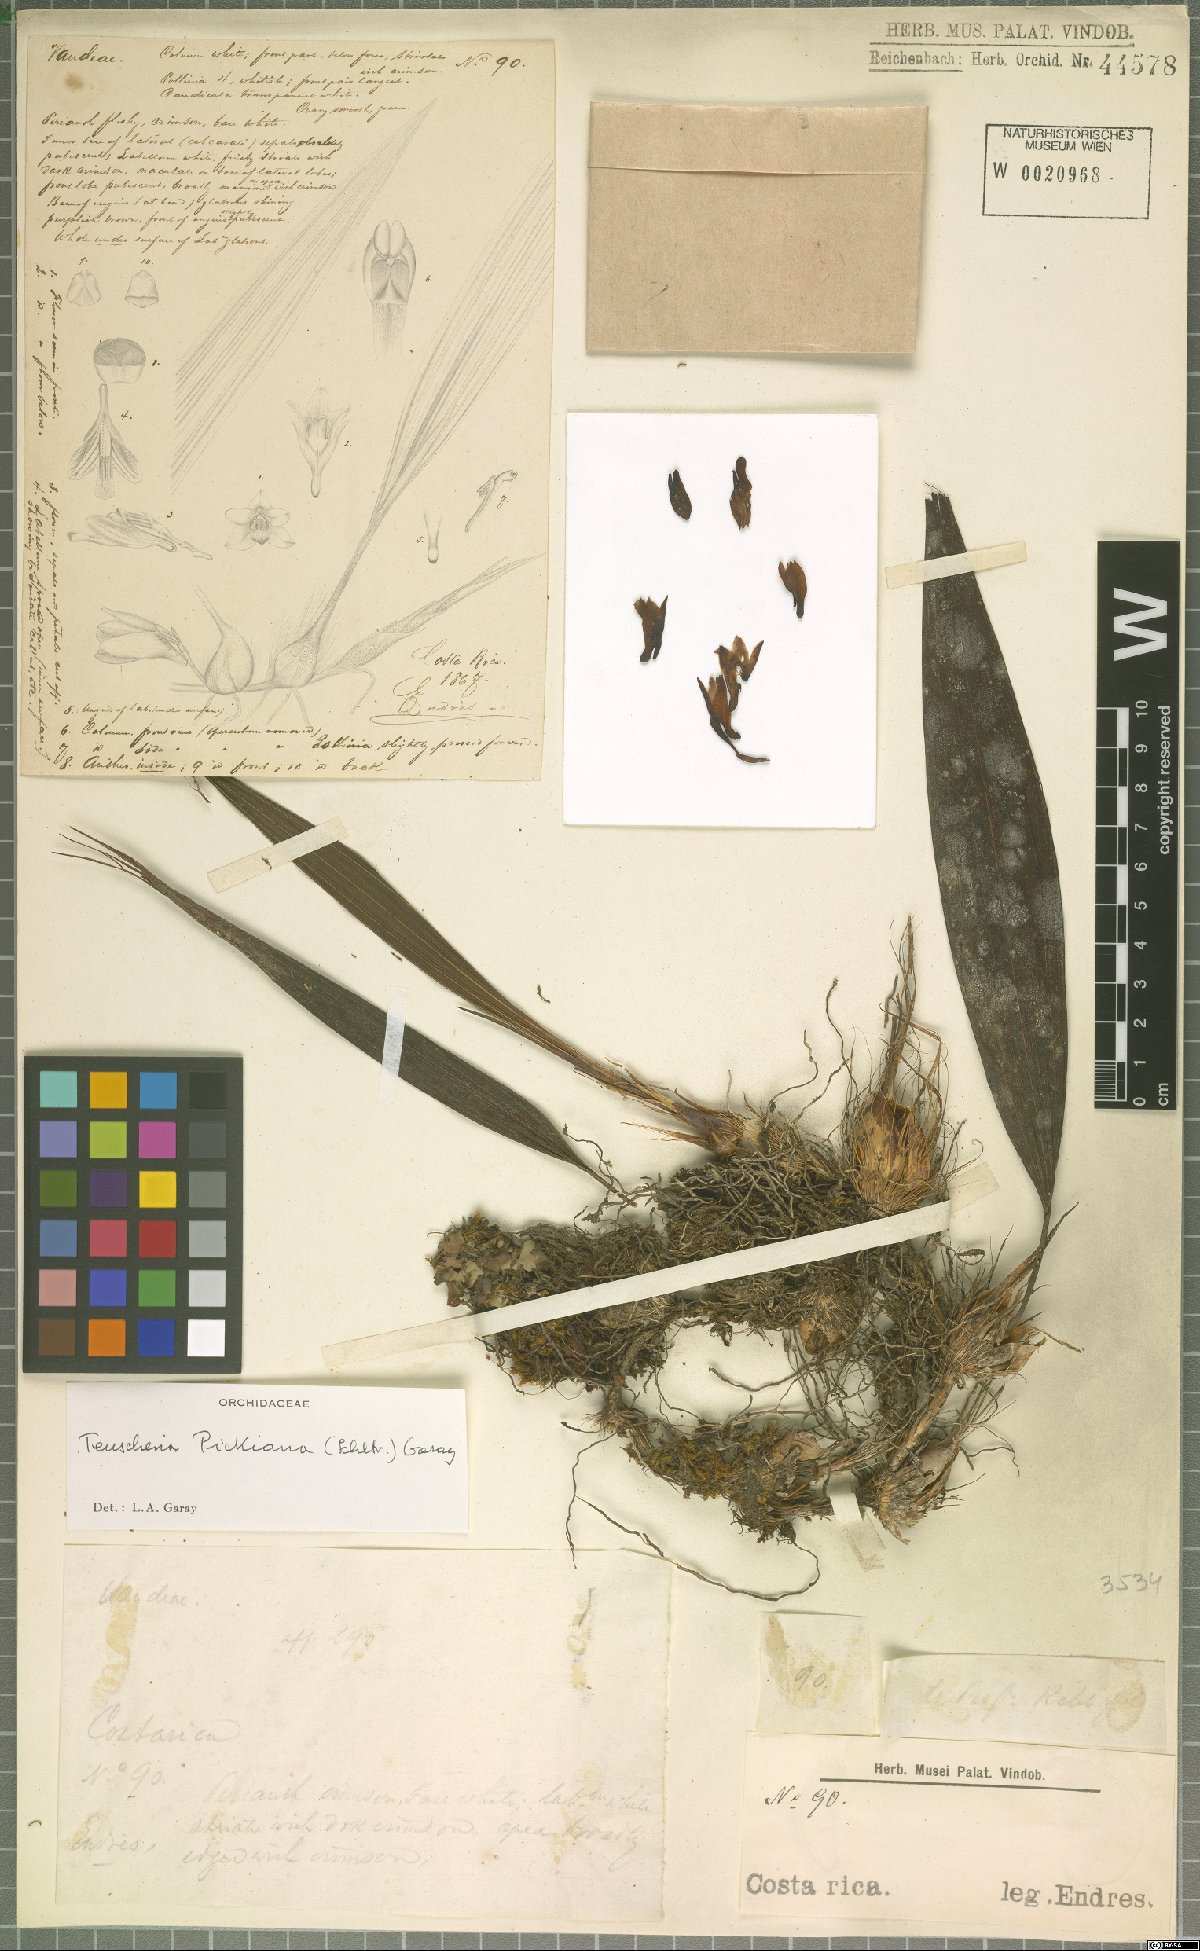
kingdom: Plantae
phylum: Tracheophyta
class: Liliopsida
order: Asparagales
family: Orchidaceae
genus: Teuscheria
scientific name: Teuscheria pickiana
